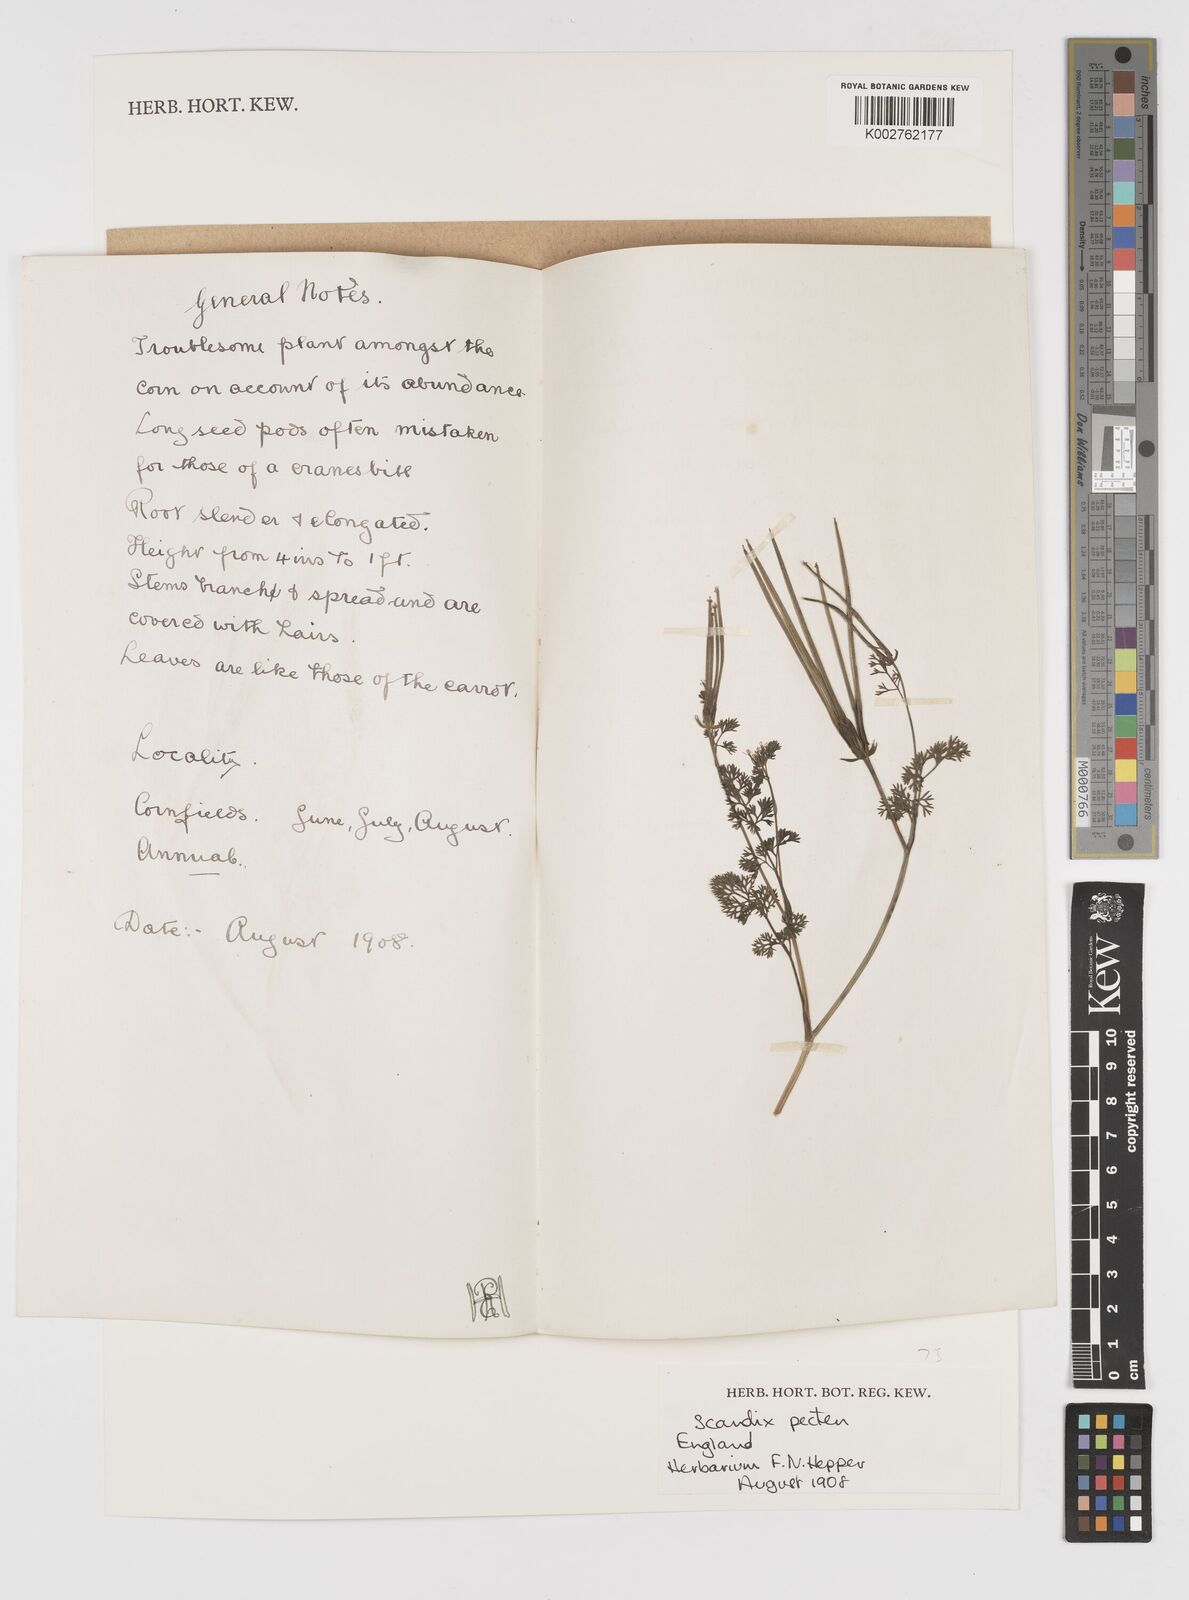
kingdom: Plantae
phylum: Tracheophyta
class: Magnoliopsida
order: Apiales
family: Apiaceae
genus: Scandix
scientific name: Scandix pecten-veneris
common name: Shepherd's-needle
